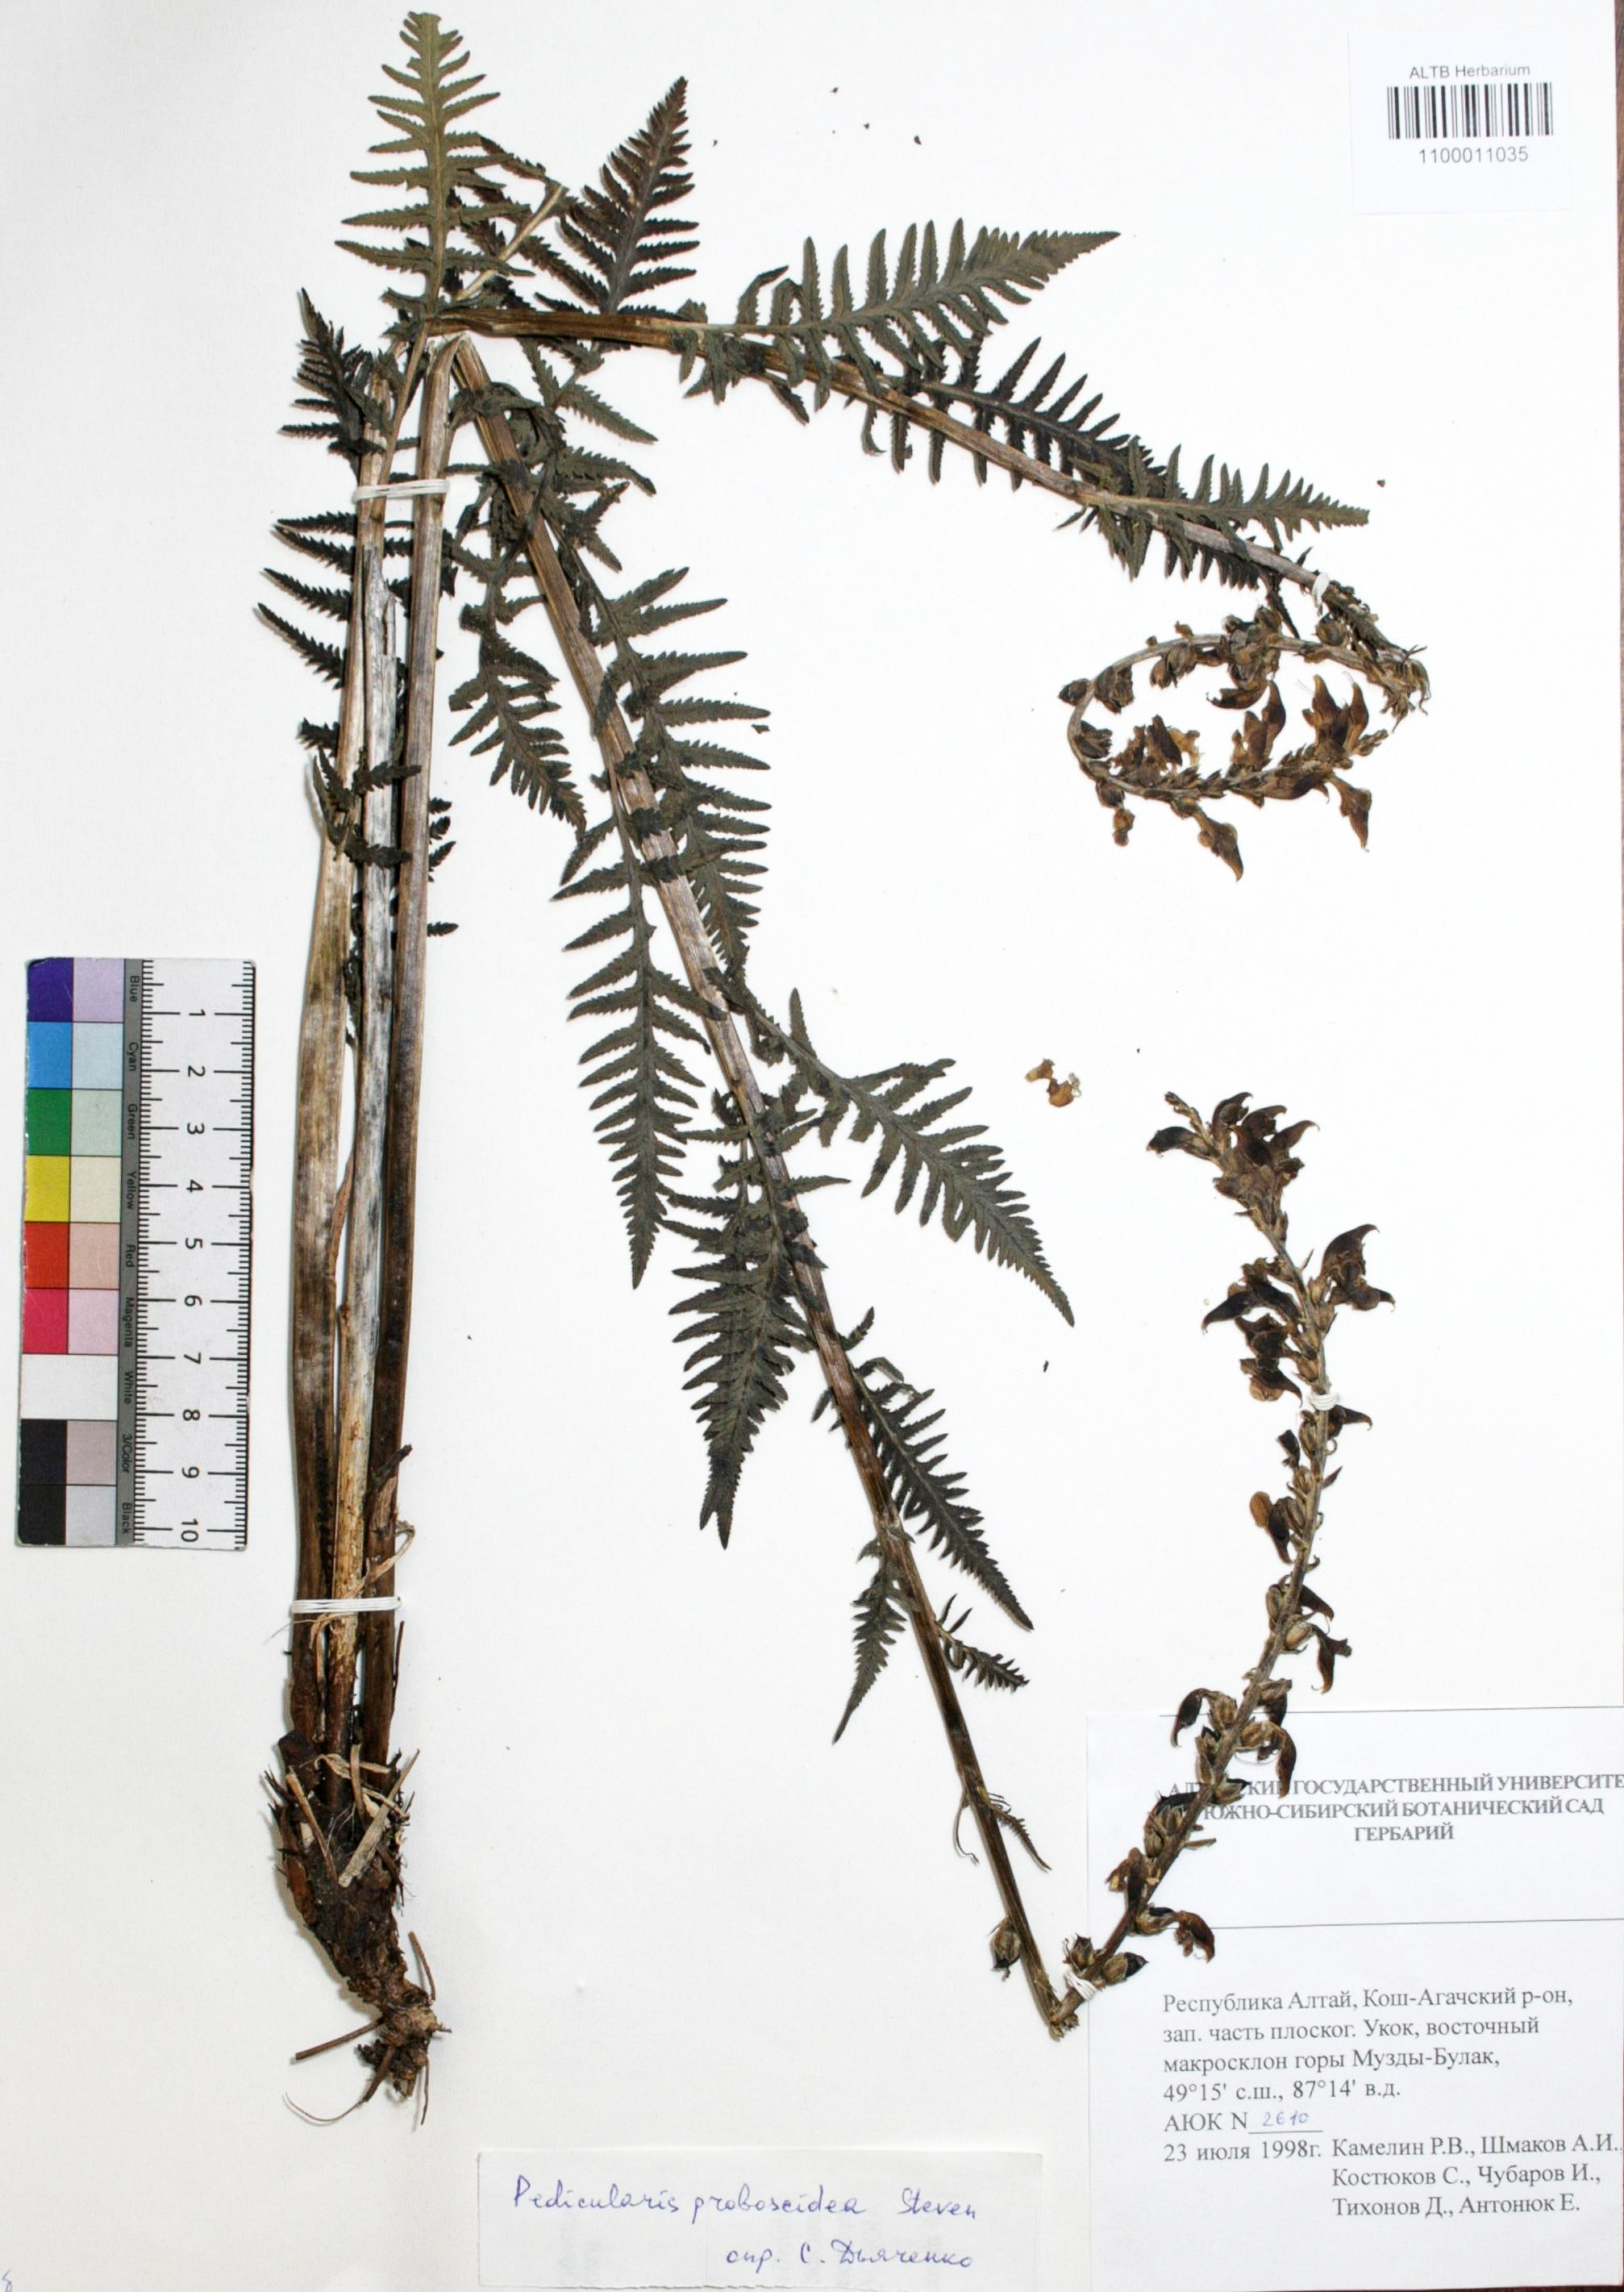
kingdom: Plantae
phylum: Tracheophyta
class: Magnoliopsida
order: Lamiales
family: Orobanchaceae
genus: Pedicularis
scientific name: Pedicularis proboscidea
